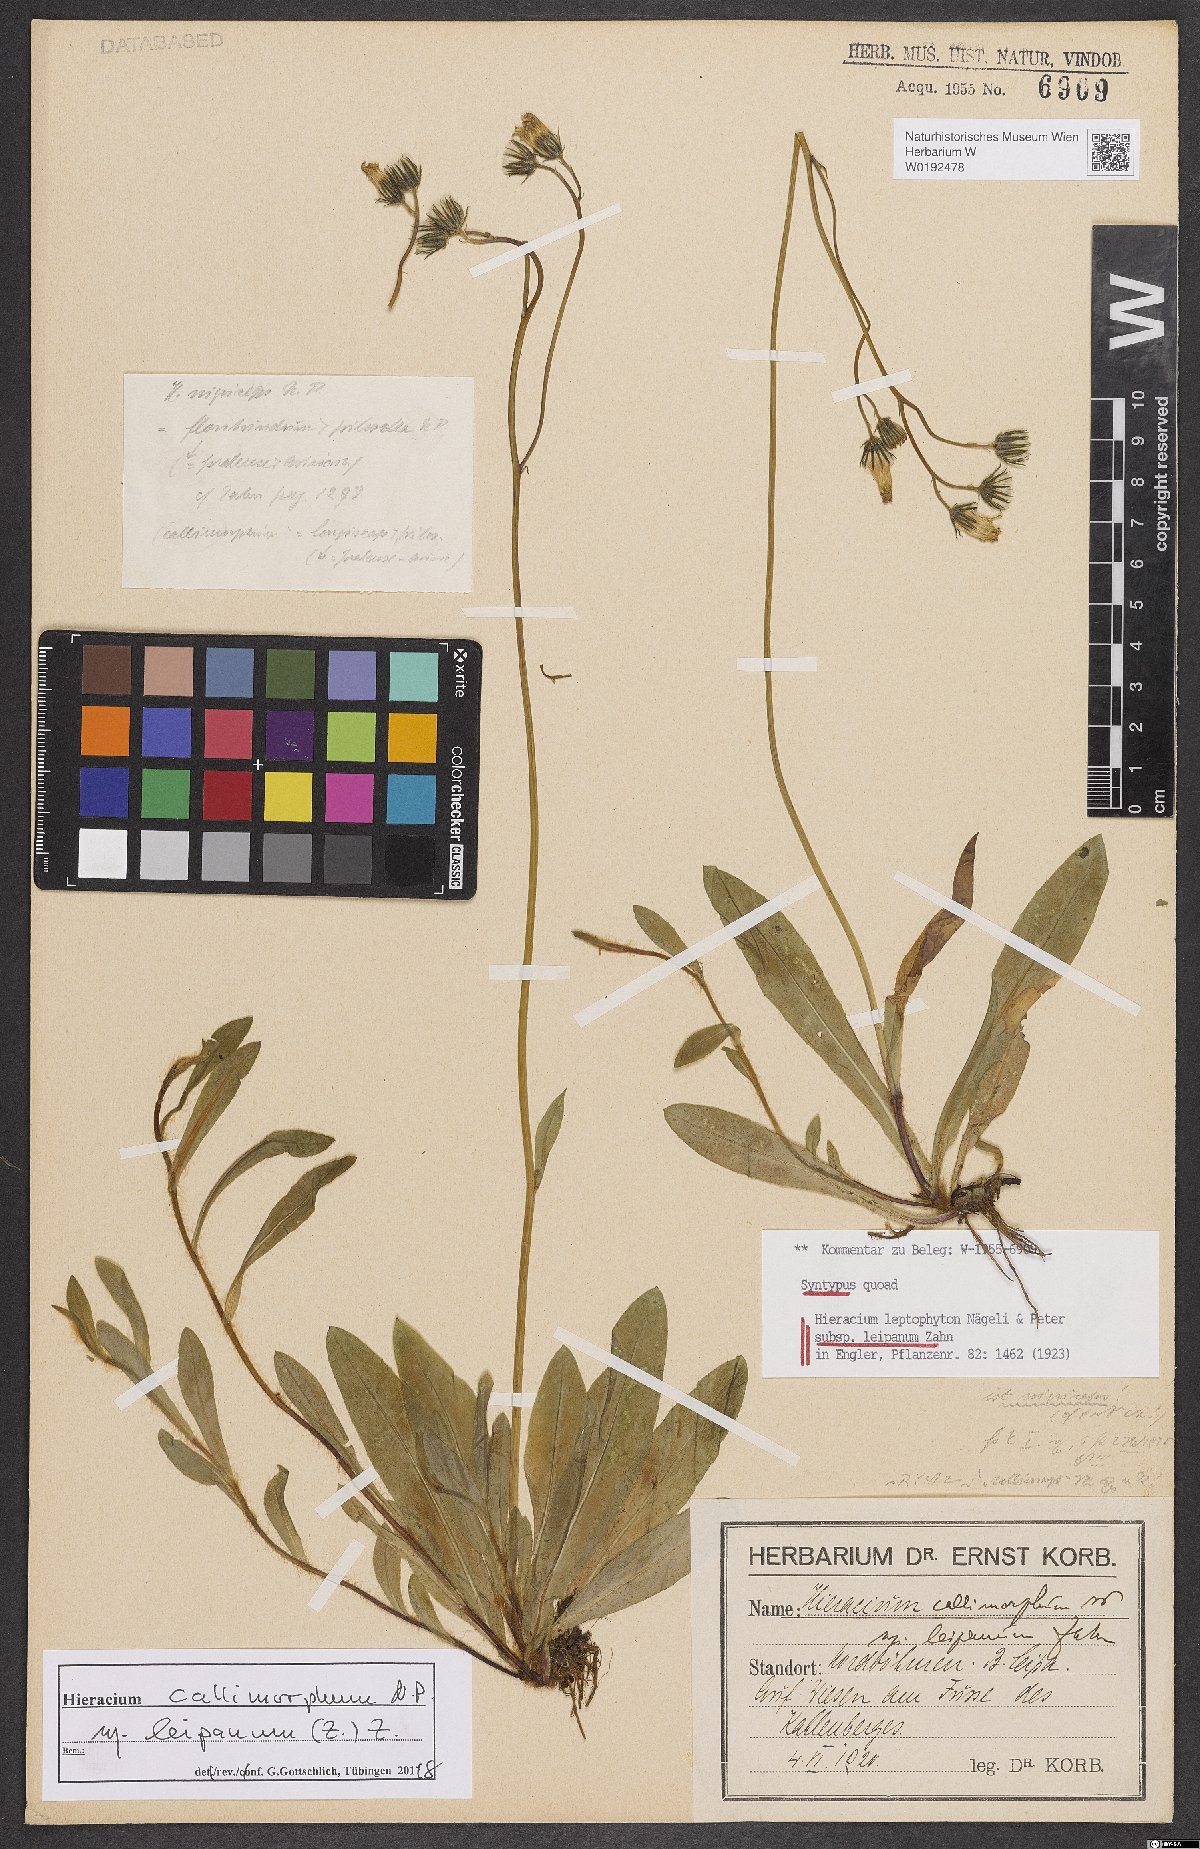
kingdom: Plantae
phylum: Tracheophyta
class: Magnoliopsida
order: Asterales
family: Asteraceae
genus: Pilosella
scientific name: Pilosella leptophyton
